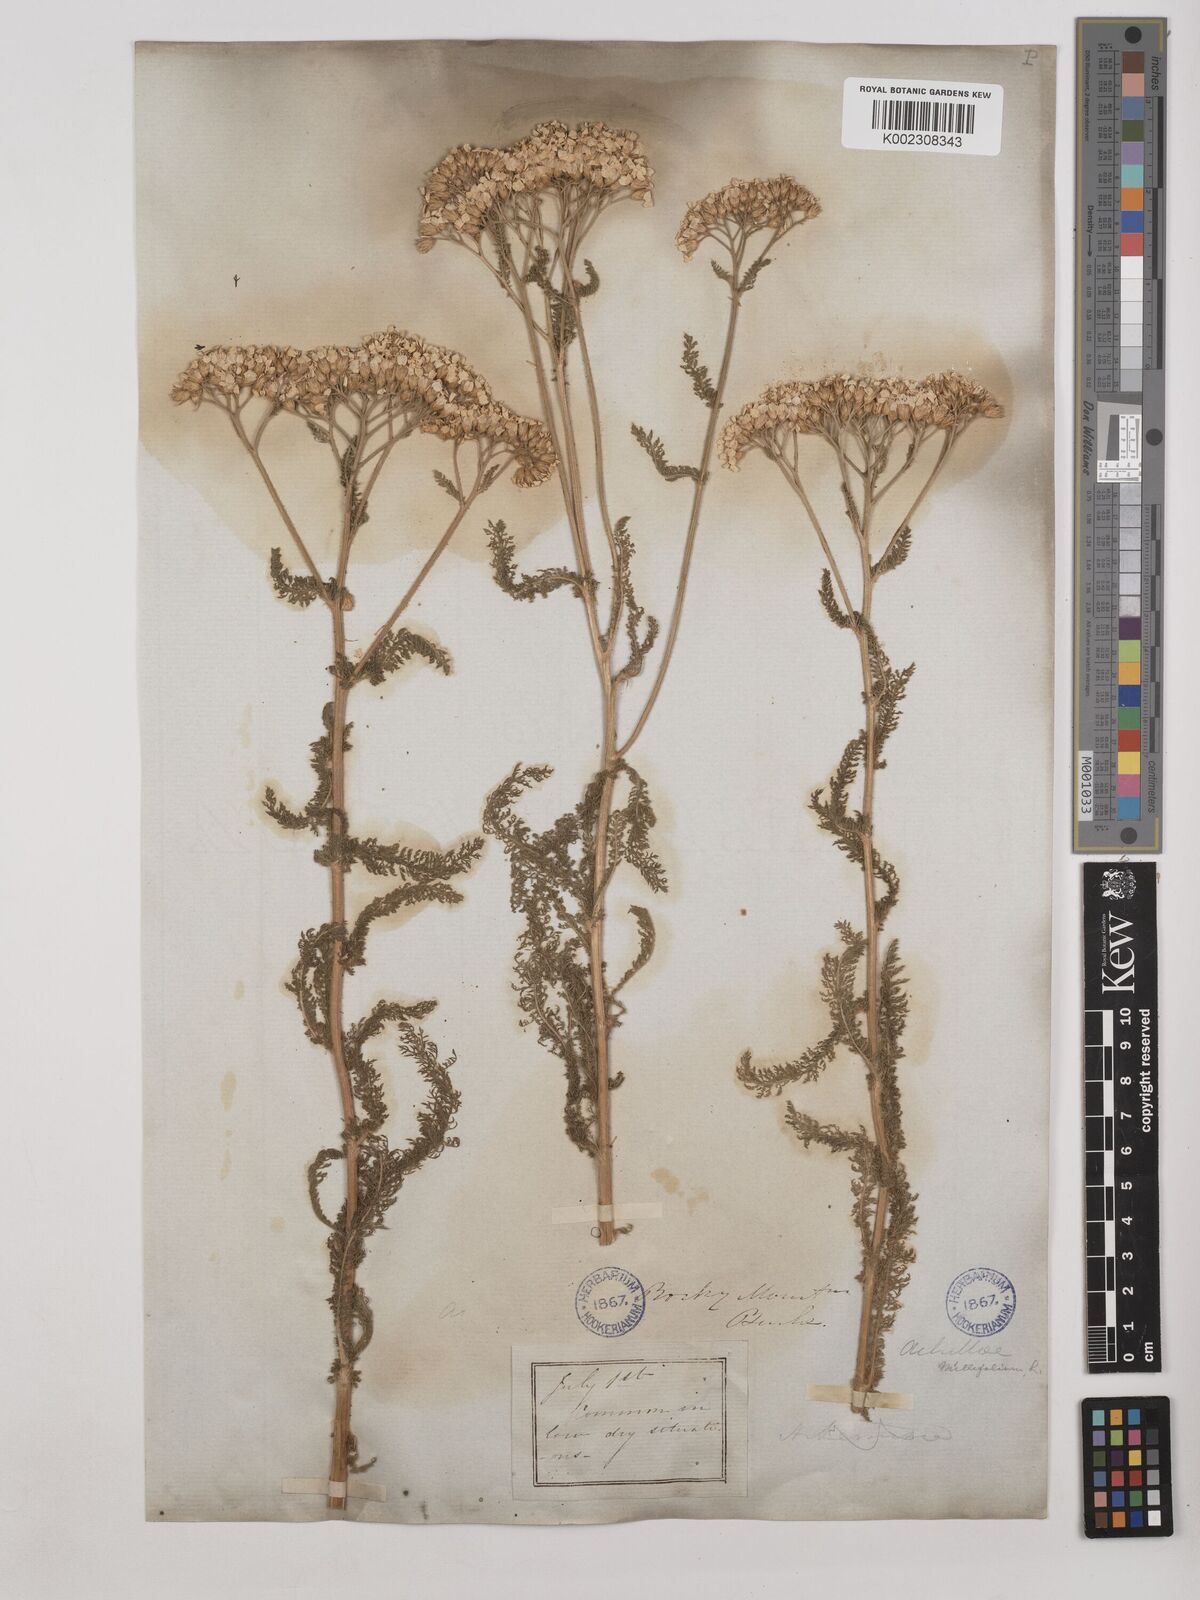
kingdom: Plantae
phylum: Tracheophyta
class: Magnoliopsida
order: Asterales
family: Asteraceae
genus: Achillea
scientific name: Achillea millefolium
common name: Yarrow
